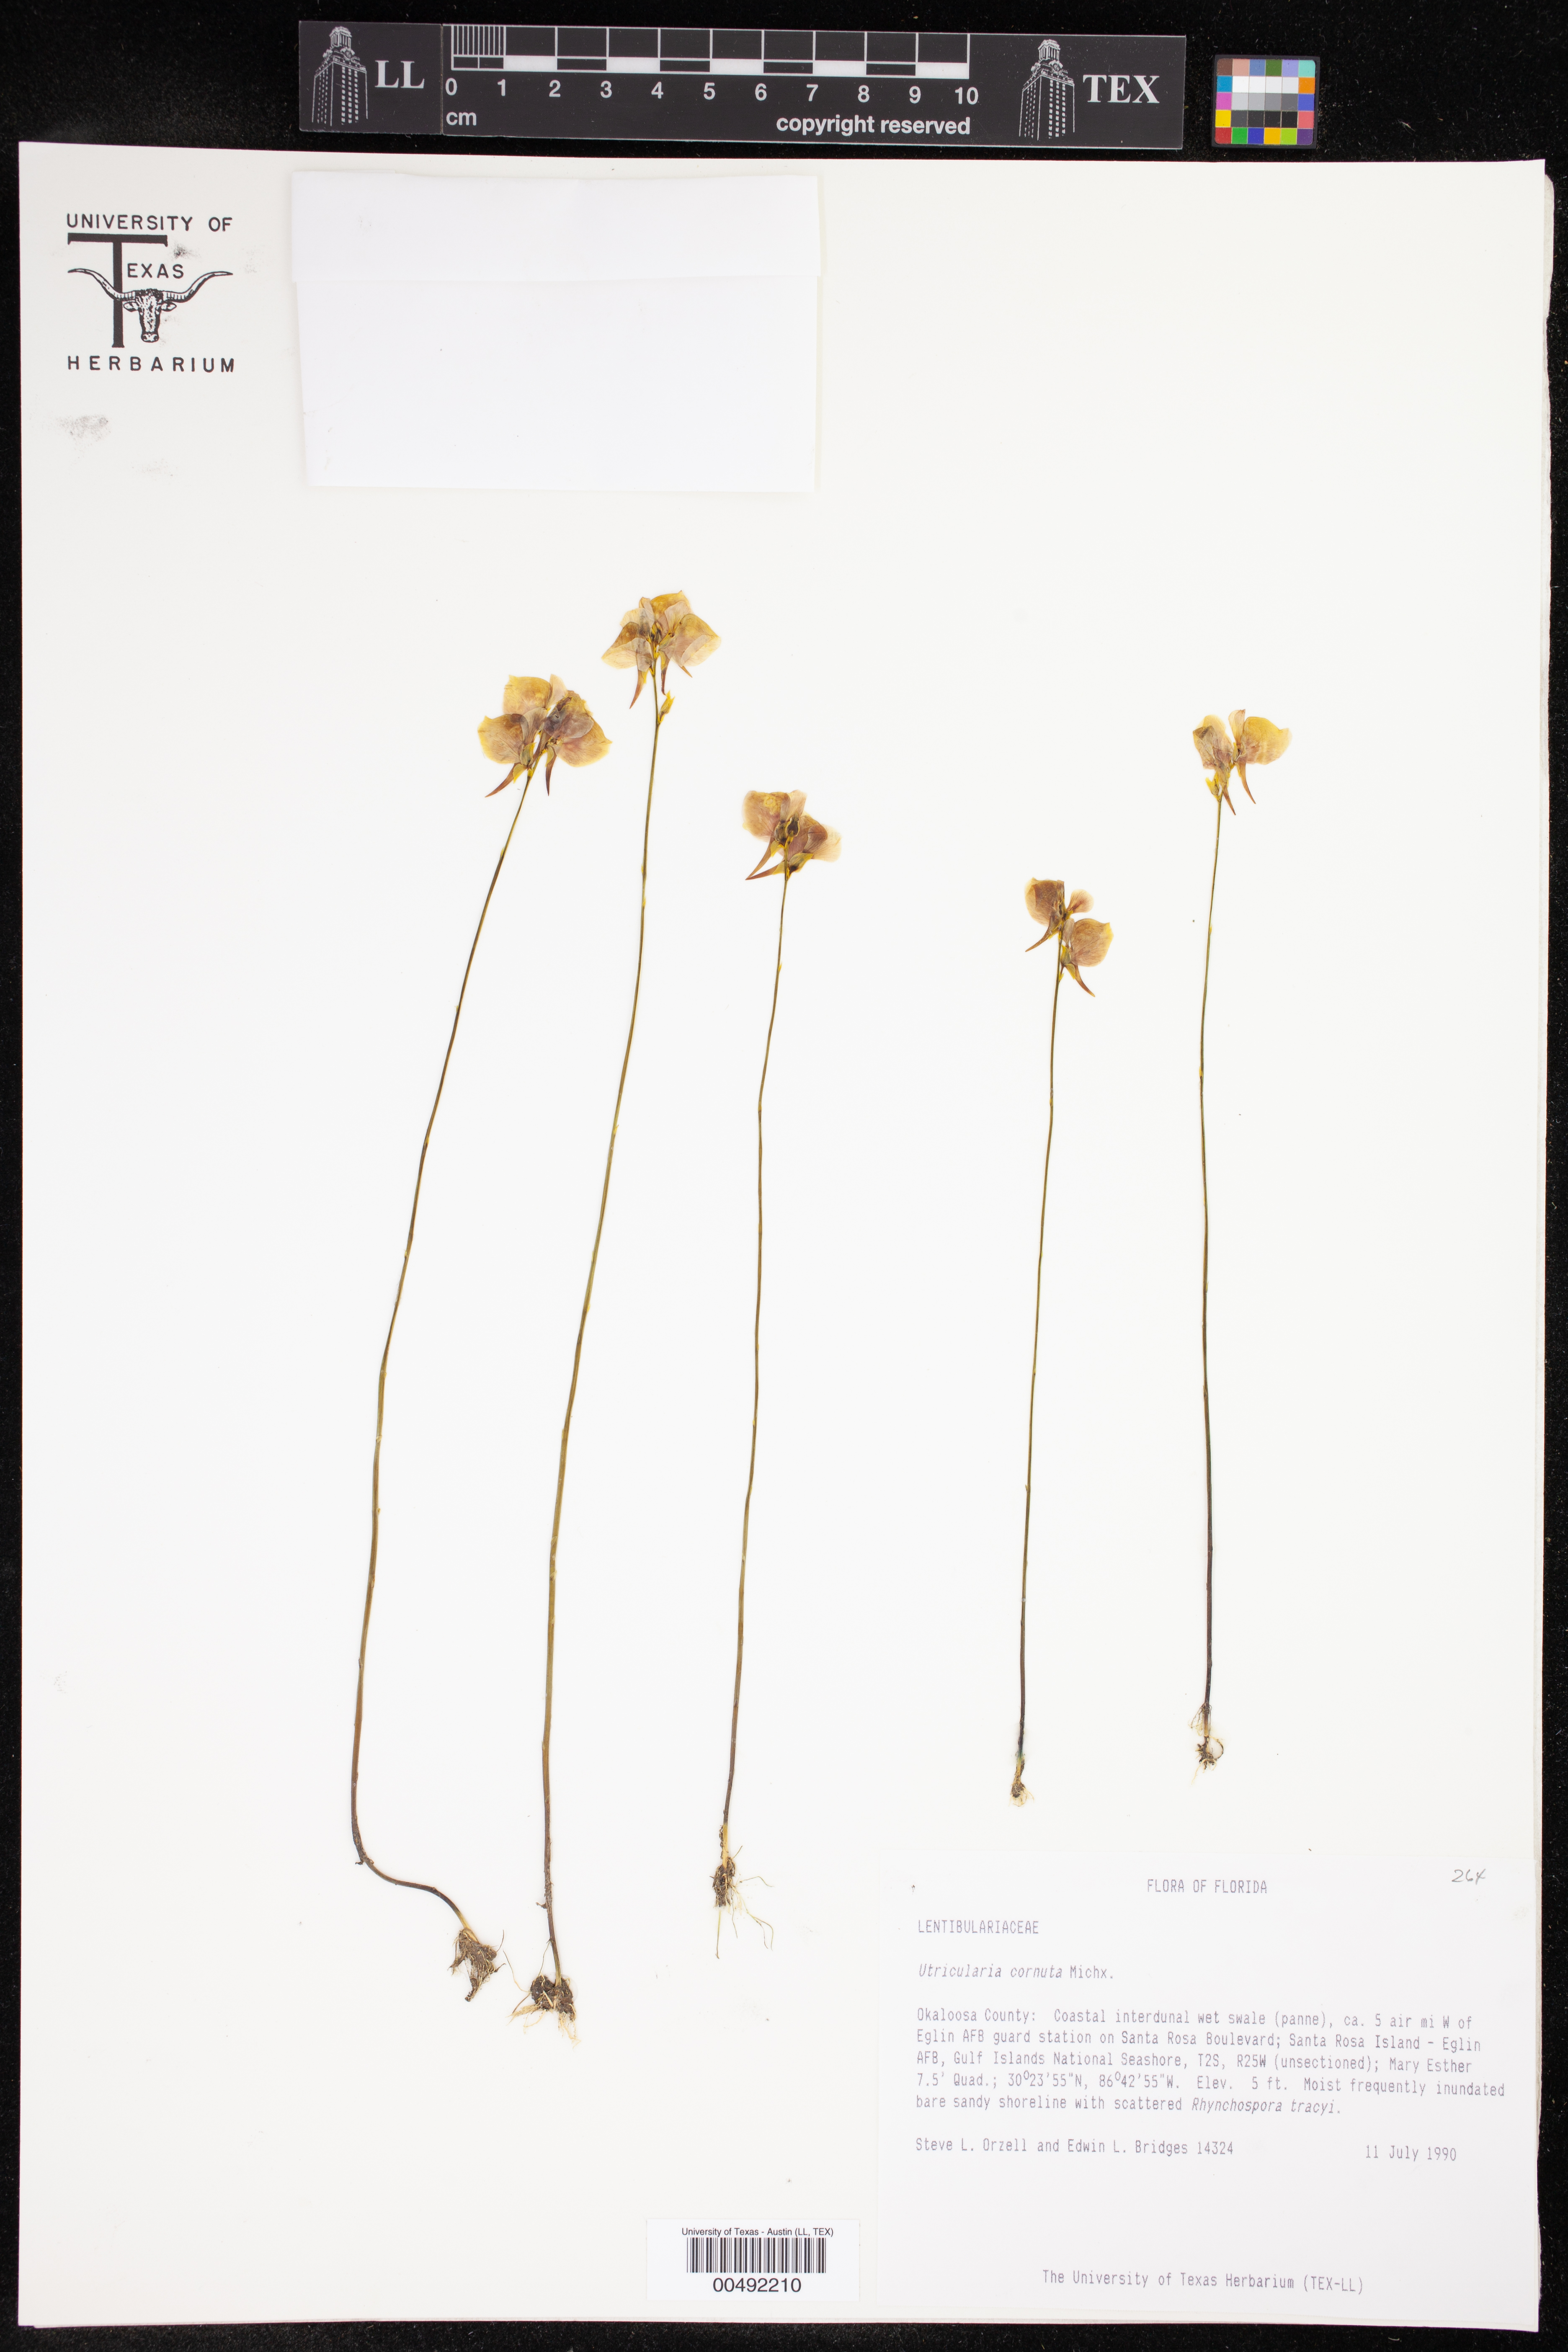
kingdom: Plantae
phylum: Tracheophyta
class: Magnoliopsida
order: Lamiales
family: Lentibulariaceae
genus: Utricularia
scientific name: Utricularia cornuta
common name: Horned bladderwort
